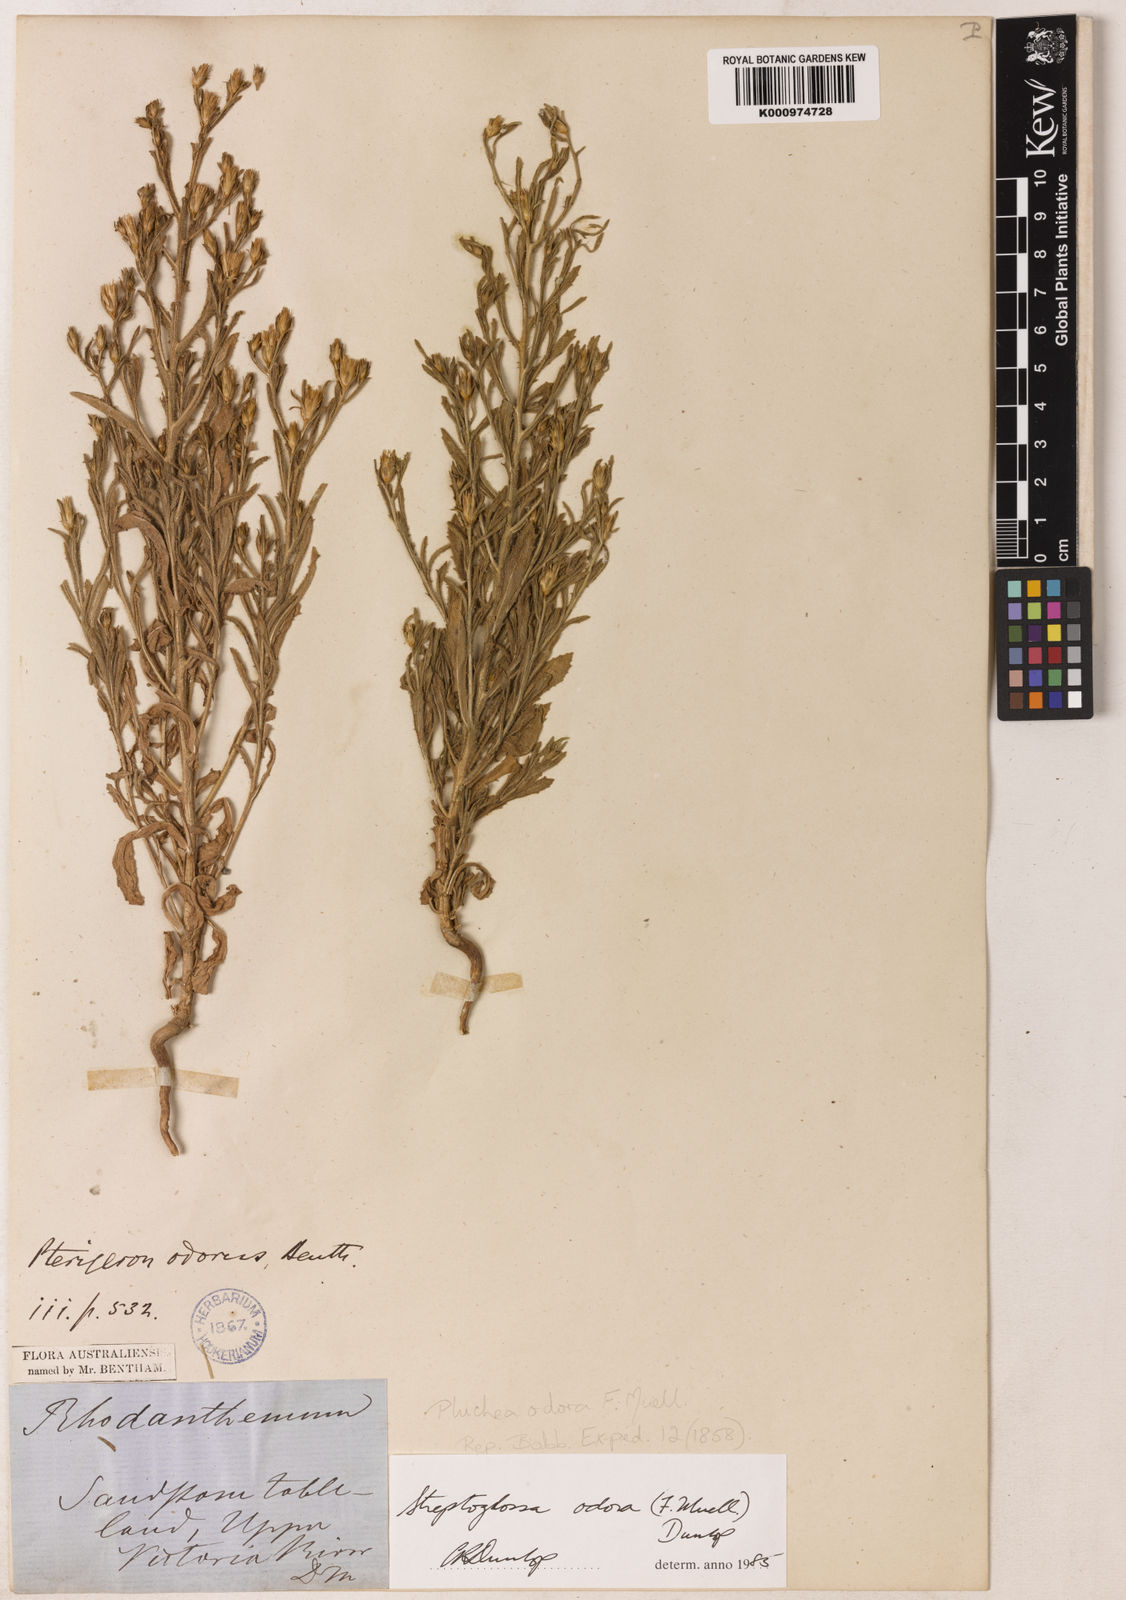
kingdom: Plantae
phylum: Tracheophyta
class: Magnoliopsida
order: Asterales
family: Asteraceae
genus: Streptoglossa
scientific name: Streptoglossa odora
